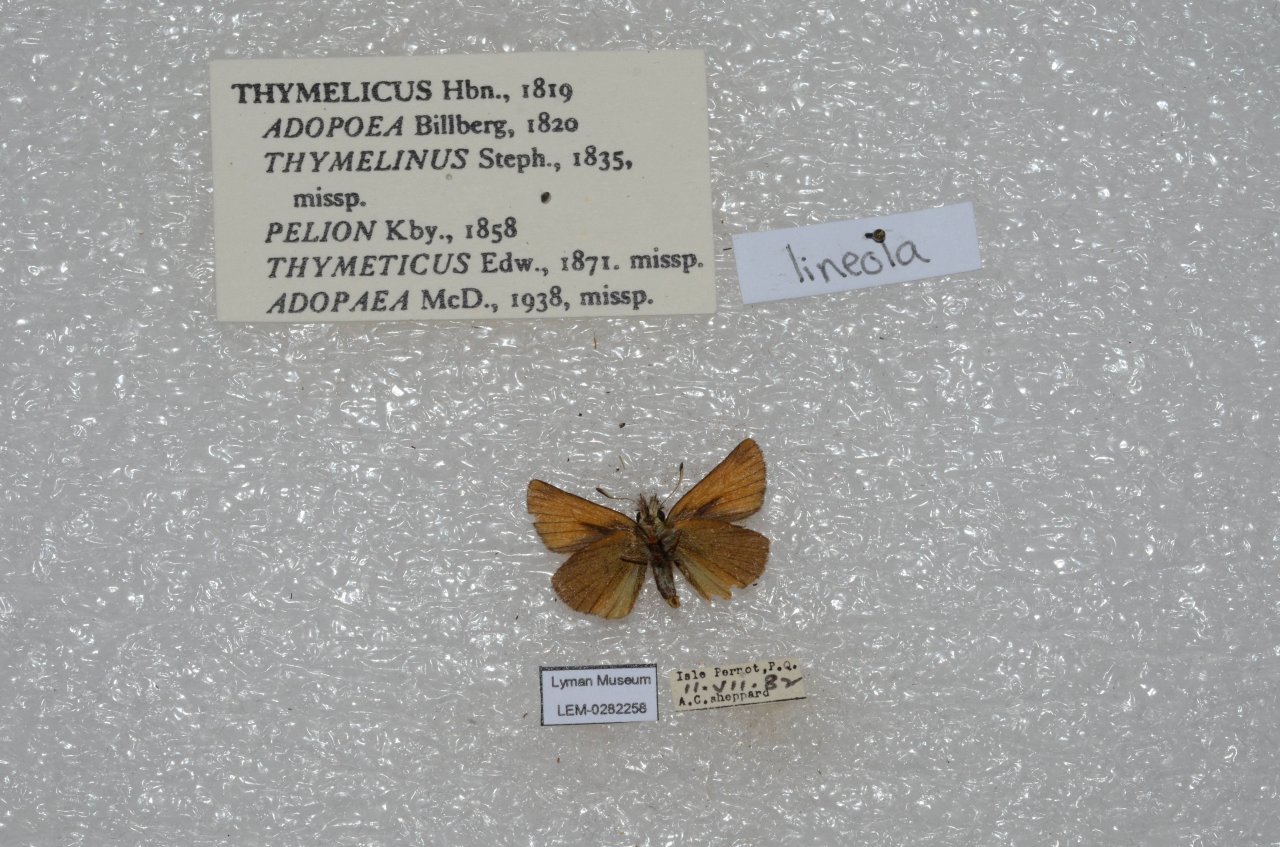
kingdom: Animalia
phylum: Arthropoda
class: Insecta
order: Lepidoptera
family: Hesperiidae
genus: Thymelicus
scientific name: Thymelicus lineola
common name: European Skipper
